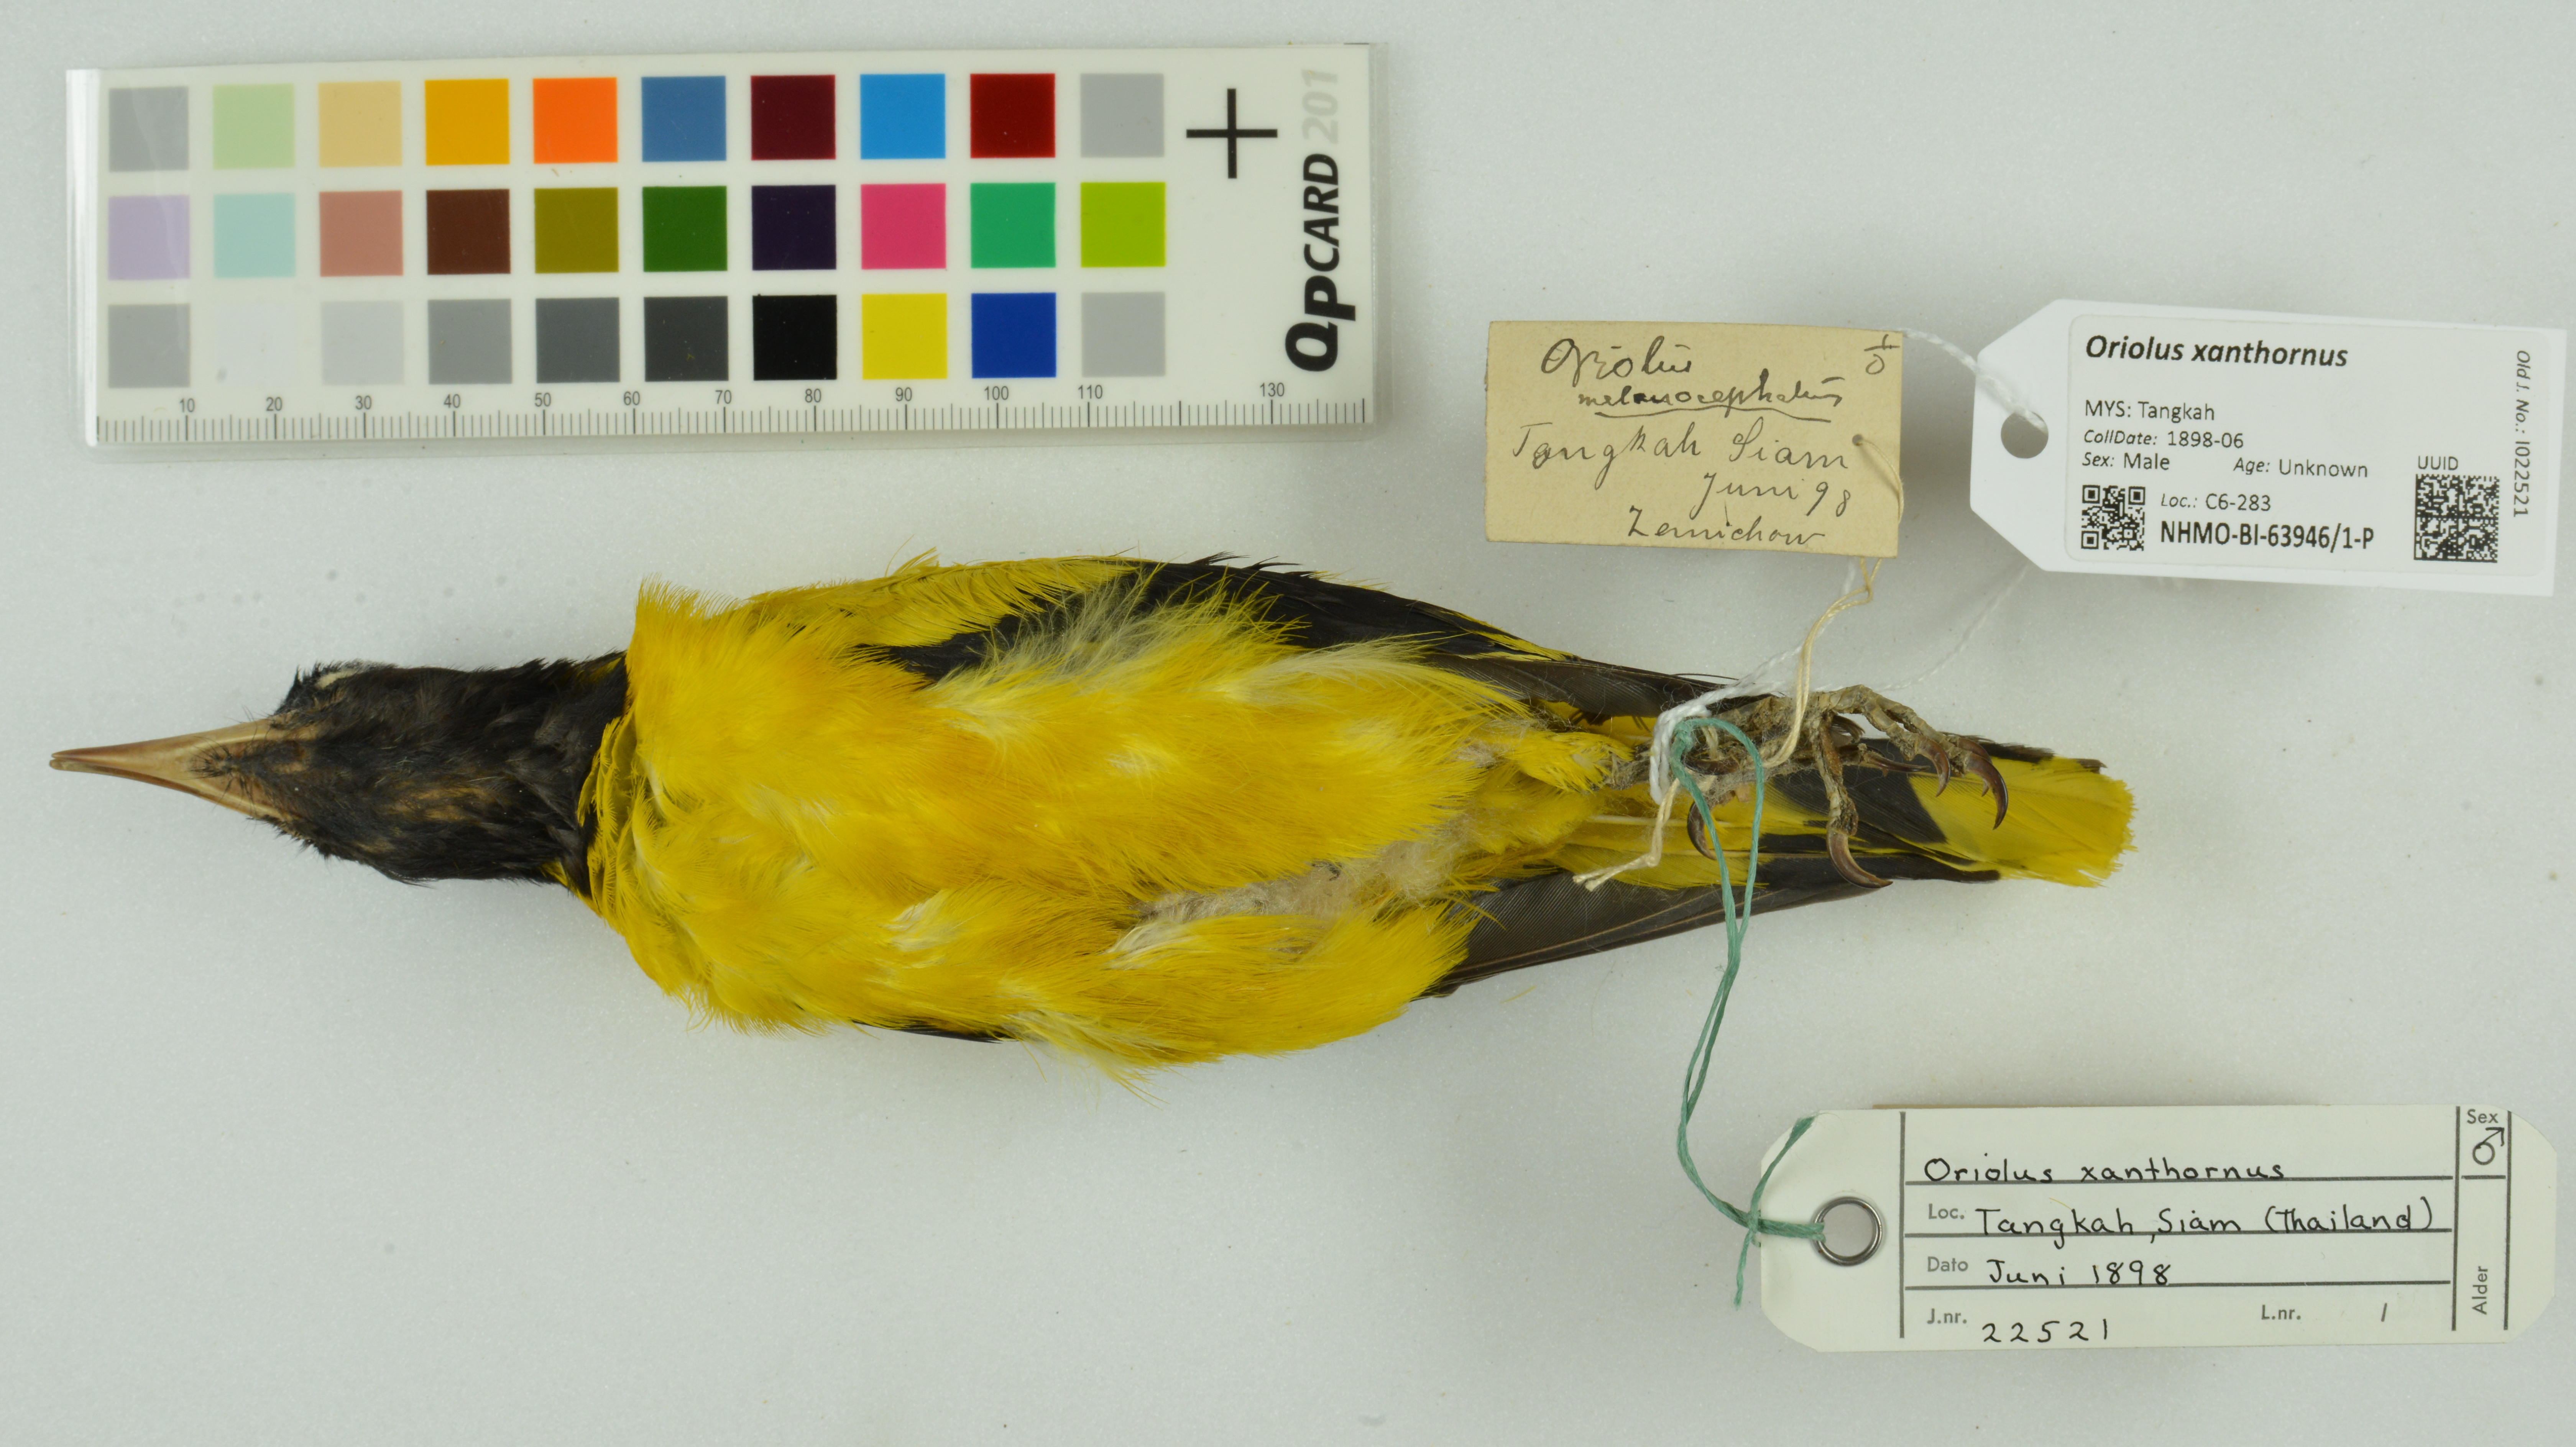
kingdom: Animalia
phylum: Chordata
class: Aves
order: Passeriformes
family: Oriolidae
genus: Oriolus
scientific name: Oriolus xanthornus
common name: Black-hooded oriole
